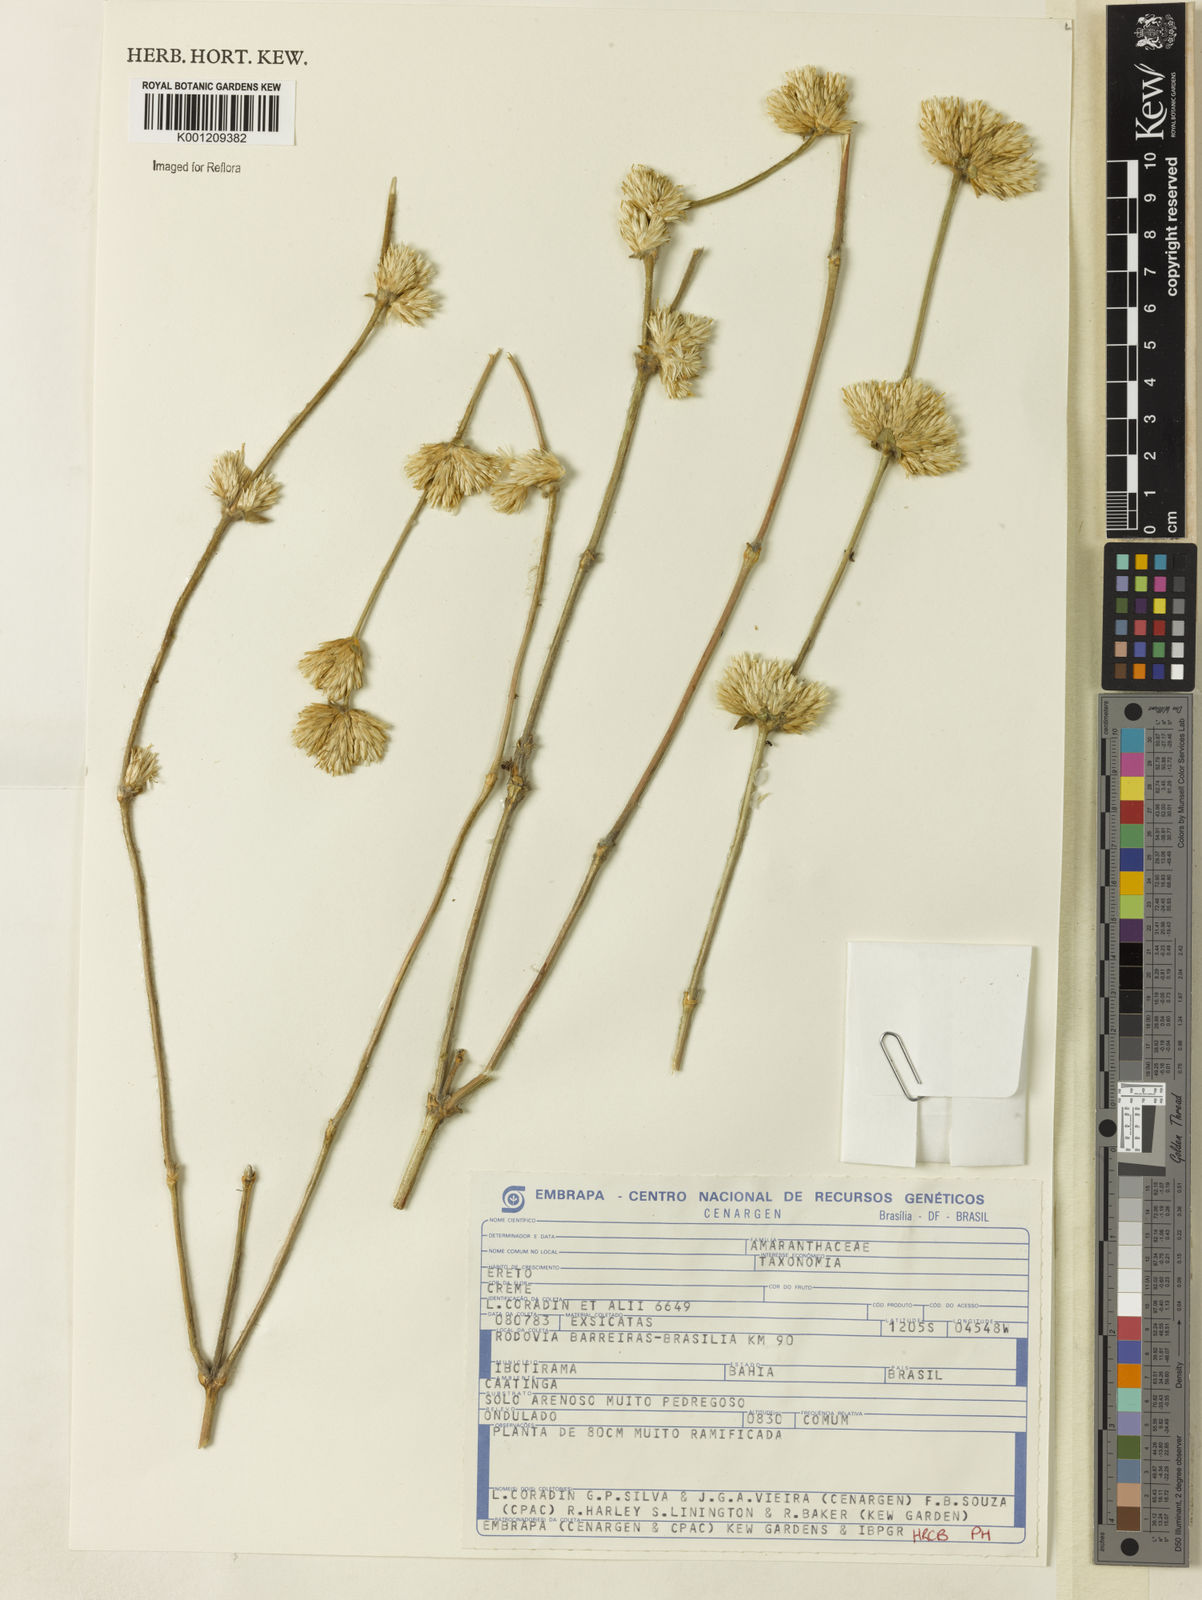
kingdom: Plantae
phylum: Tracheophyta
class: Magnoliopsida
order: Caryophyllales
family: Amaranthaceae
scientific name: Amaranthaceae
